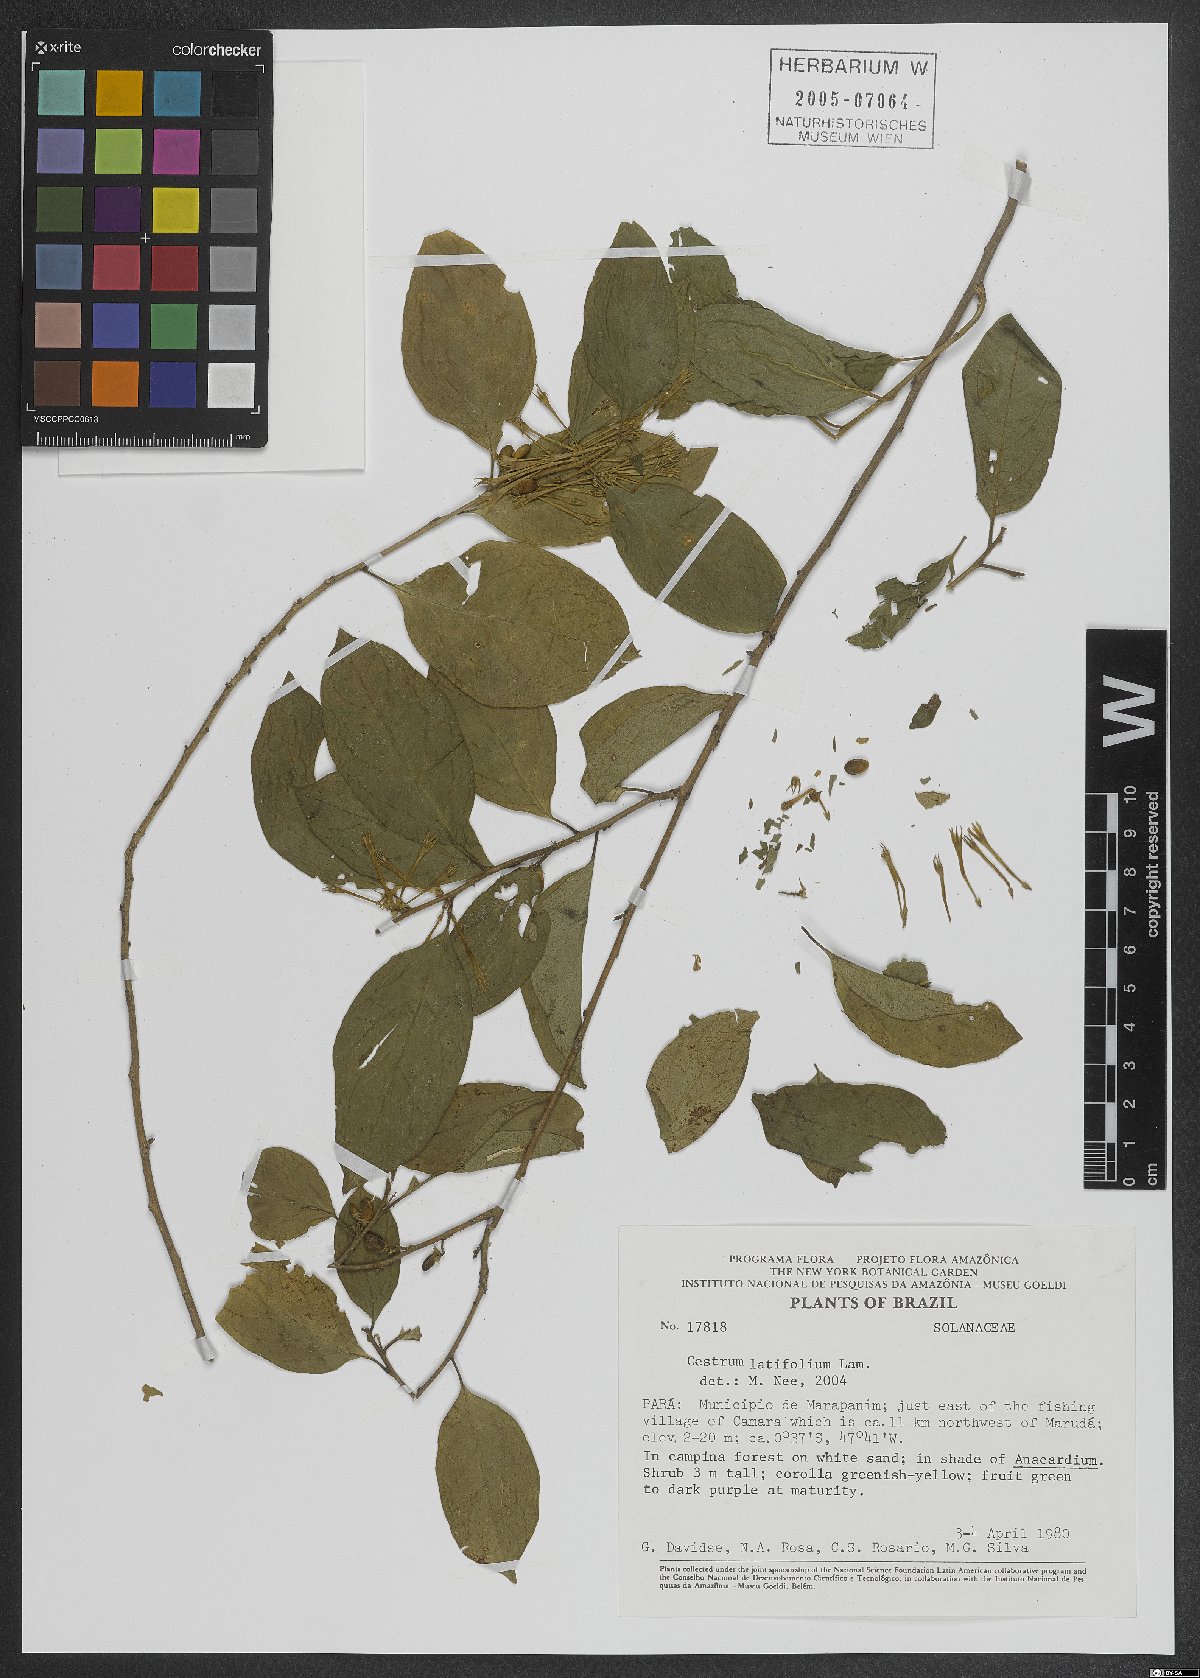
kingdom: Plantae
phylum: Tracheophyta
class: Magnoliopsida
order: Solanales
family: Solanaceae
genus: Cestrum
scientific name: Cestrum latifolium
